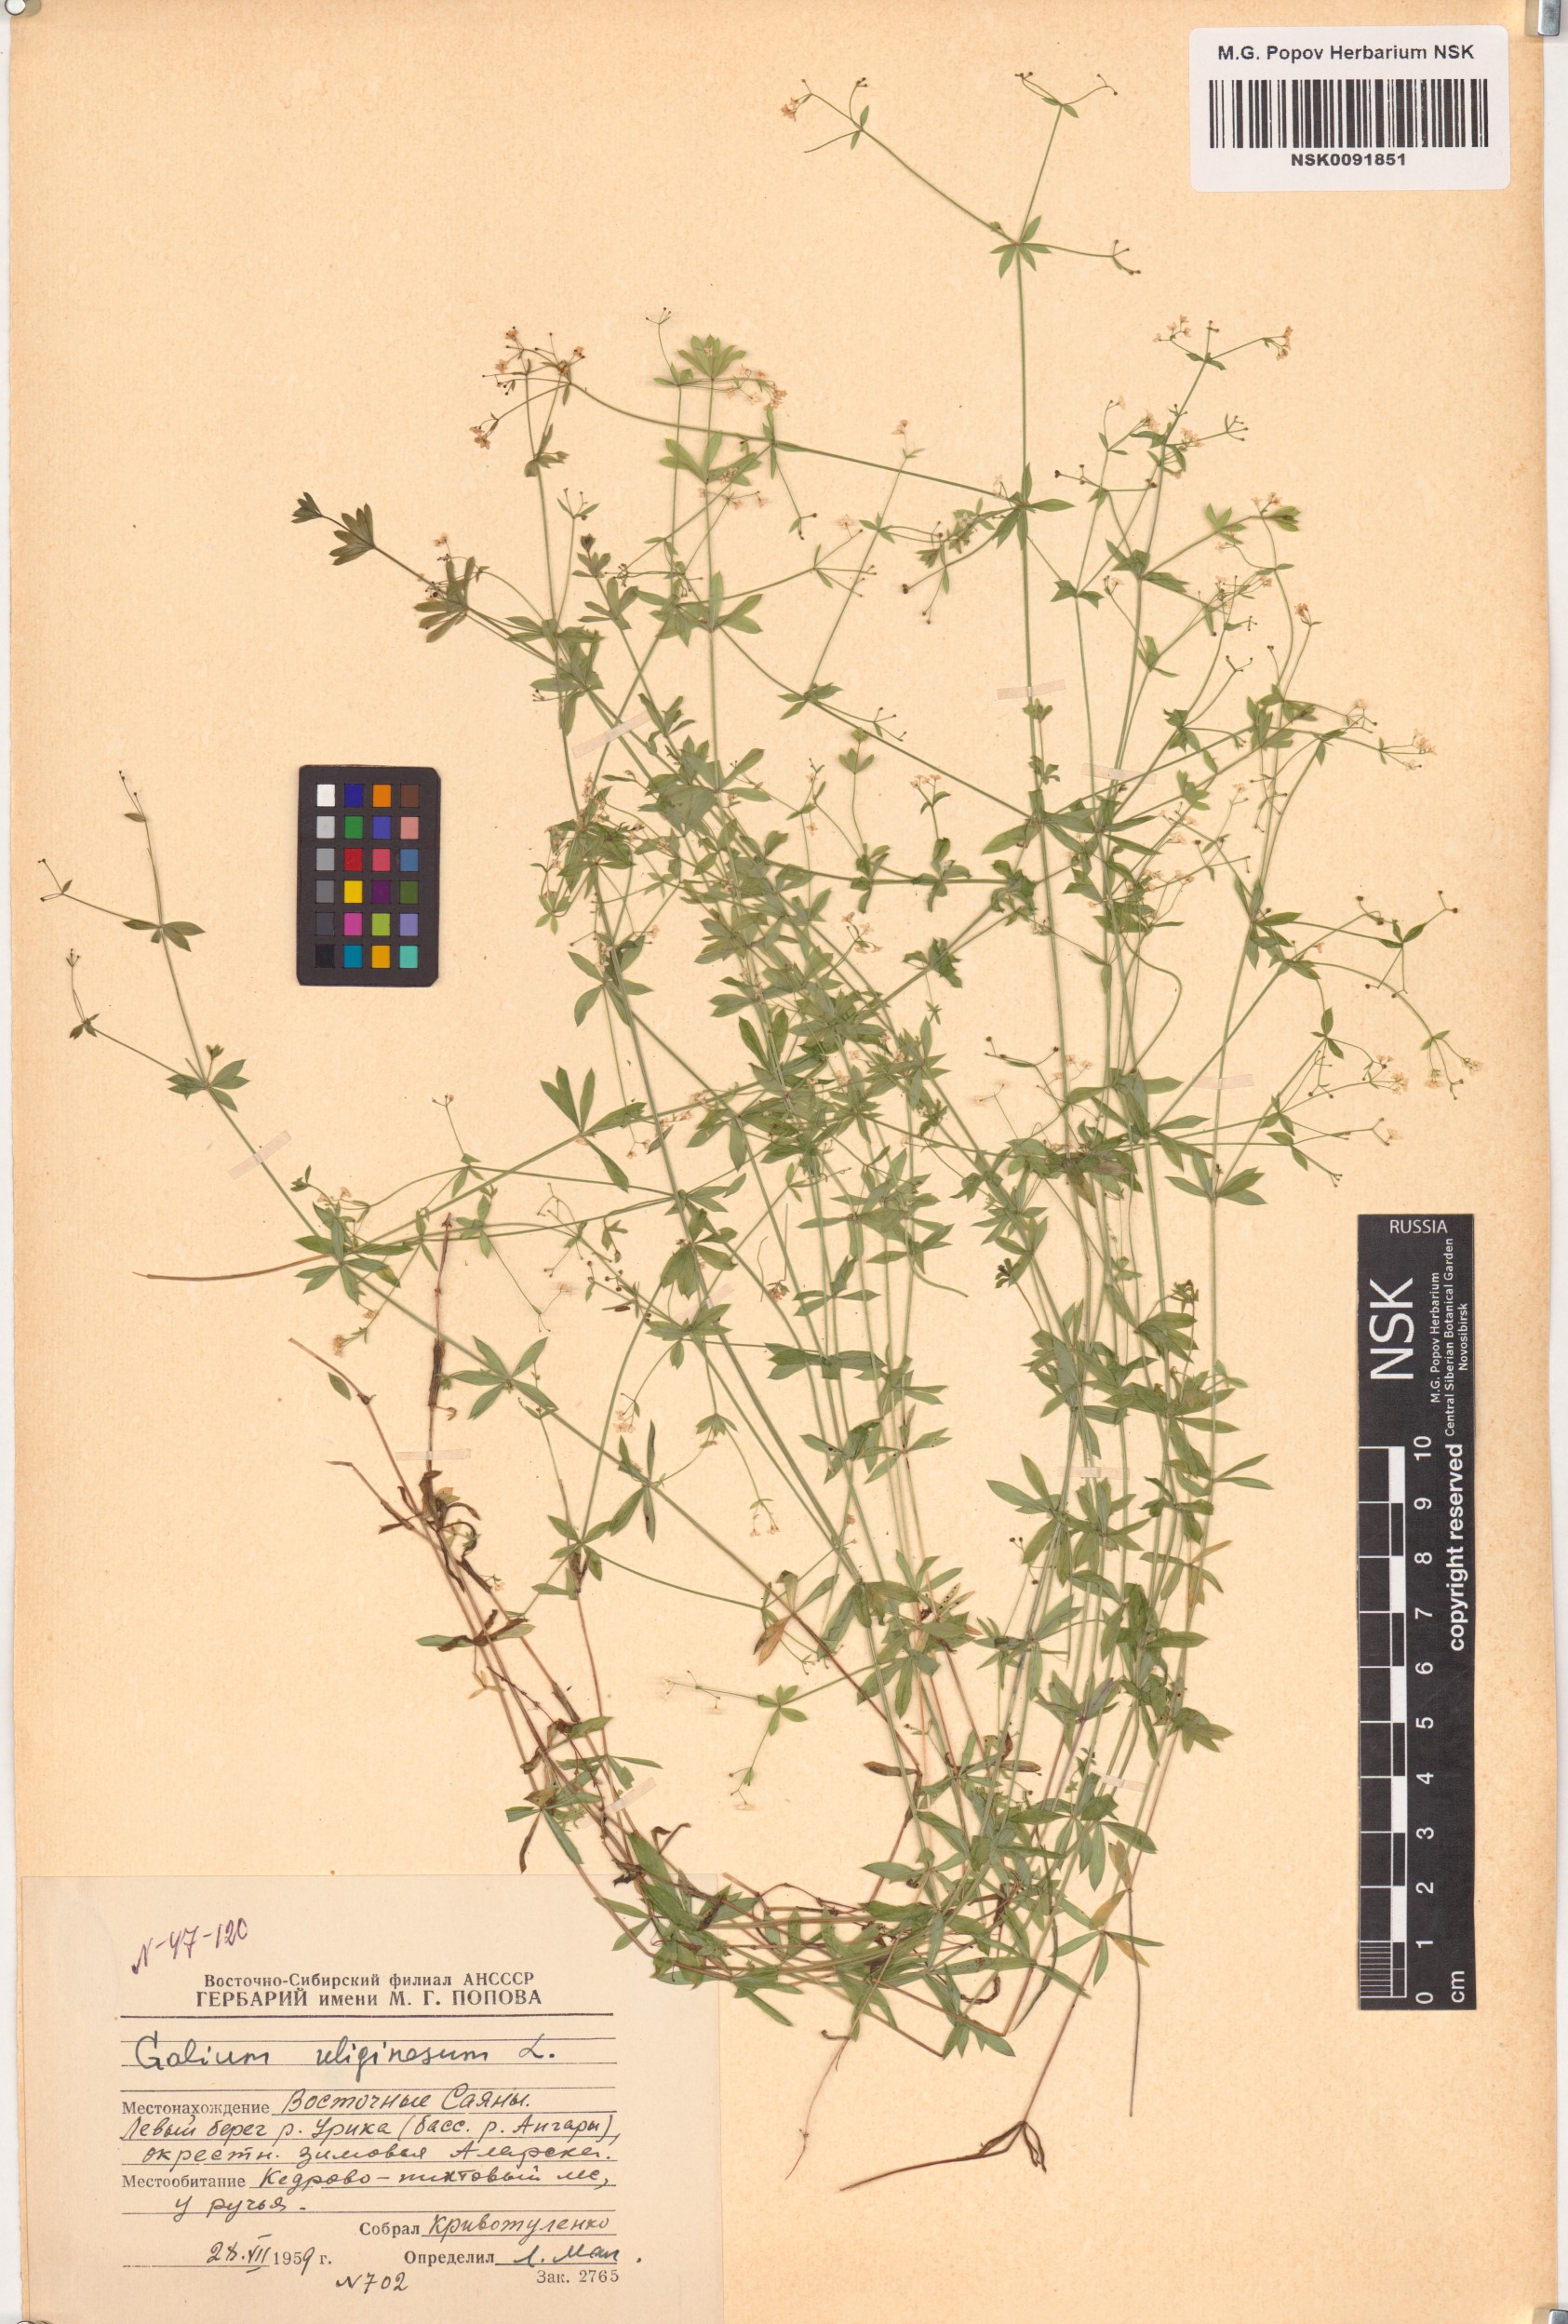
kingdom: Plantae
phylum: Tracheophyta
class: Magnoliopsida
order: Gentianales
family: Rubiaceae
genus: Galium
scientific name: Galium uliginosum
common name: Fen bedstraw
